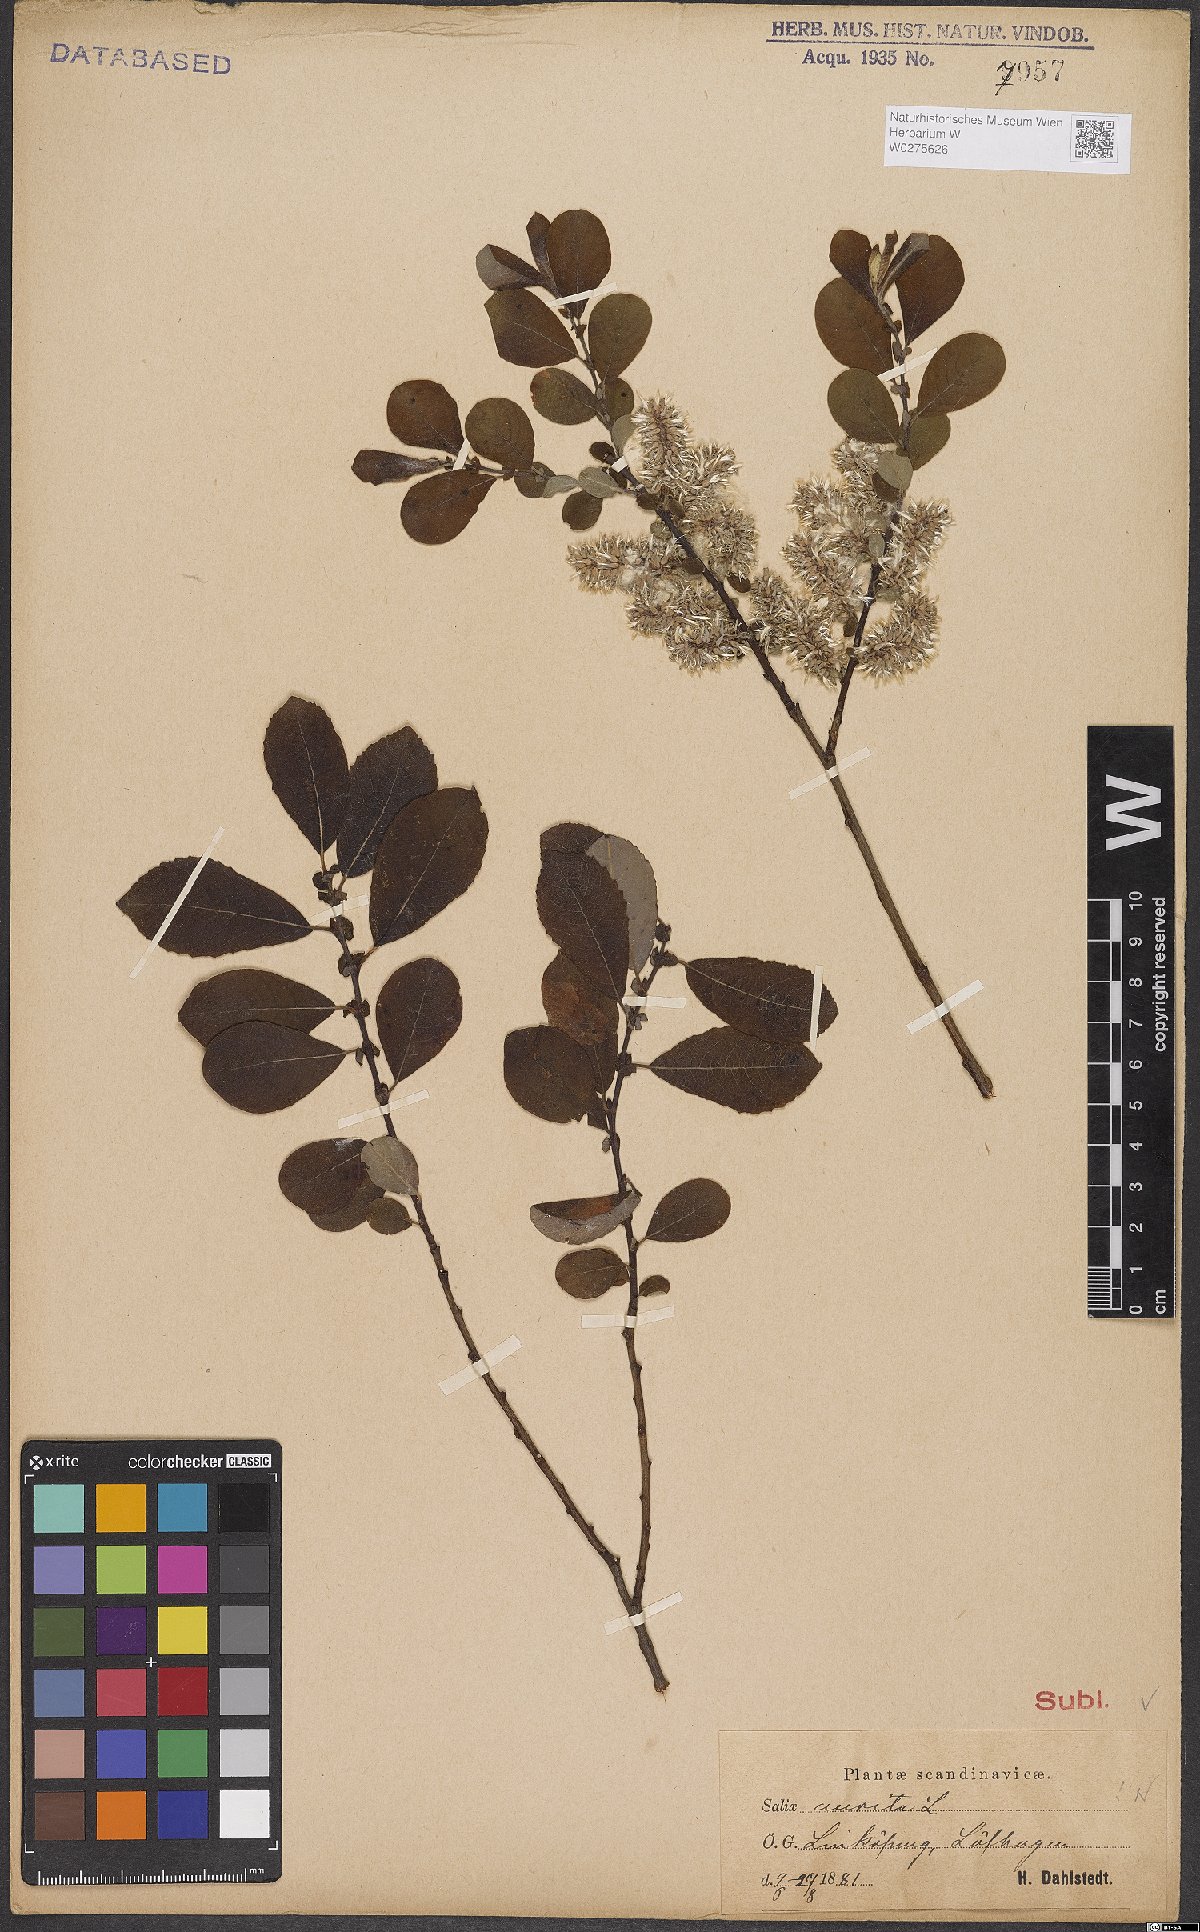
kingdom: Plantae
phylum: Tracheophyta
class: Magnoliopsida
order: Malpighiales
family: Salicaceae
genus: Salix
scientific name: Salix aurita
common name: Eared willow
